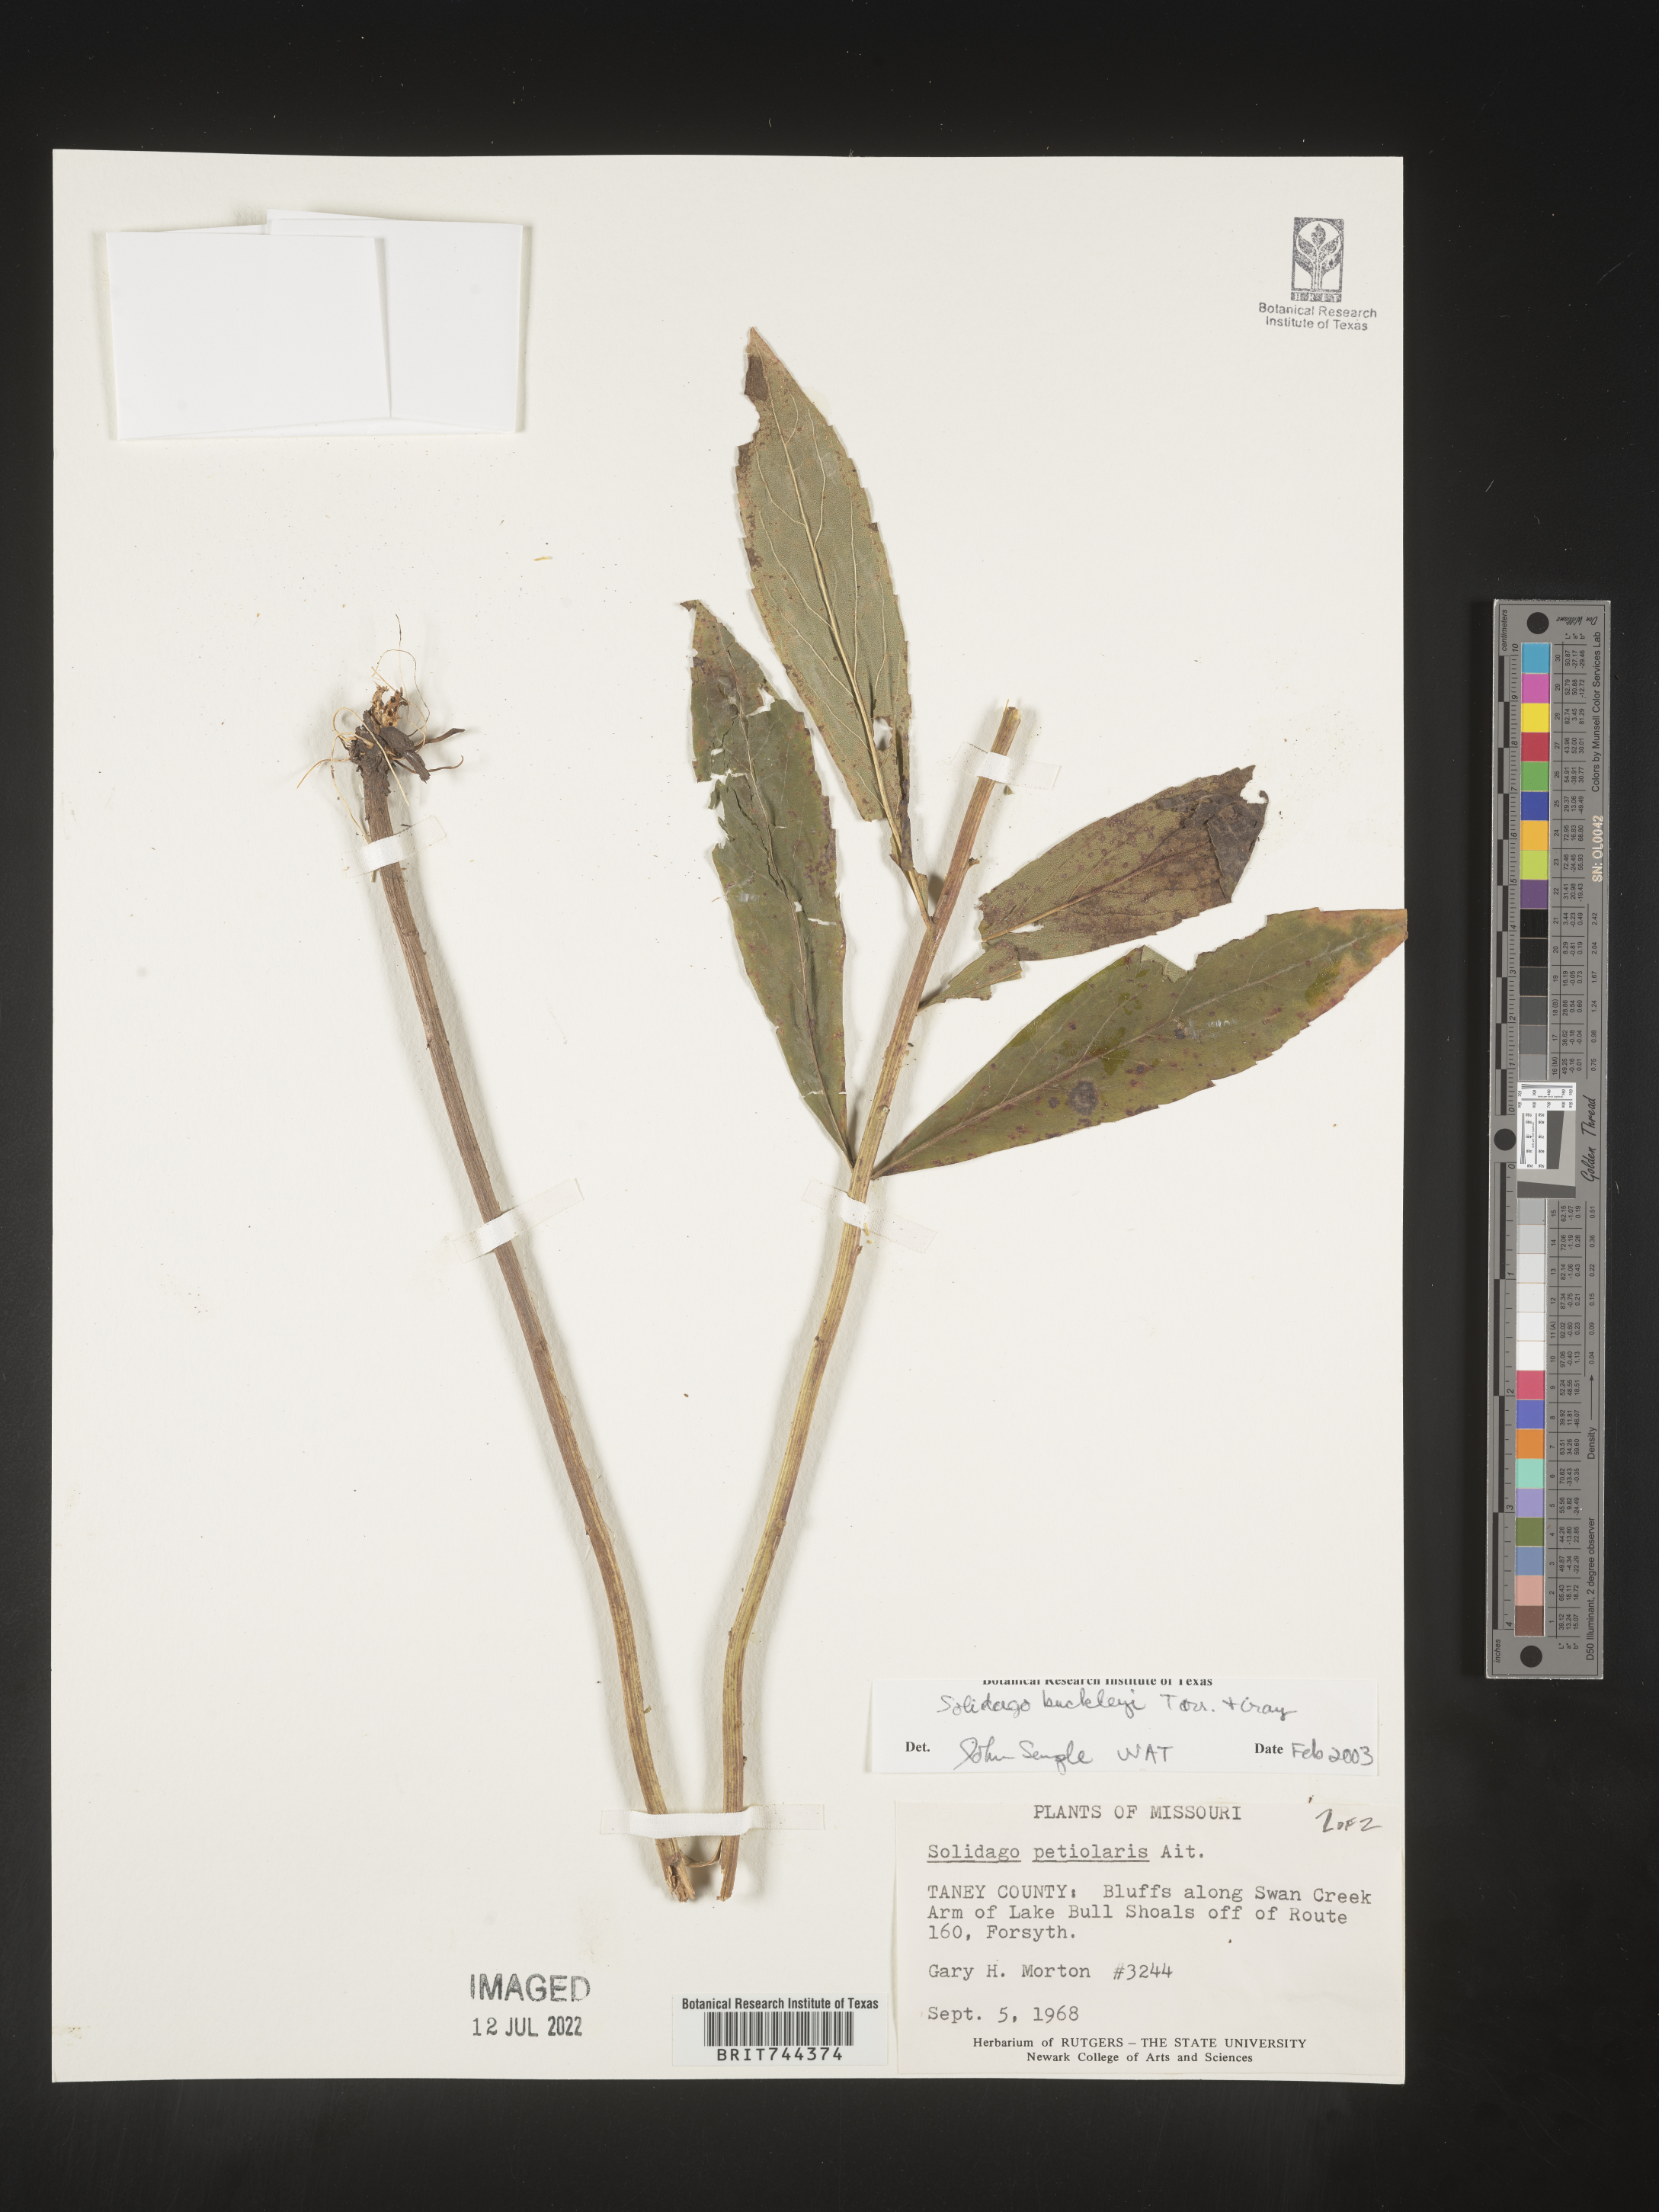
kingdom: Plantae
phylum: Tracheophyta
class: Magnoliopsida
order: Asterales
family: Asteraceae
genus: Solidago
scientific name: Solidago buckleyi
